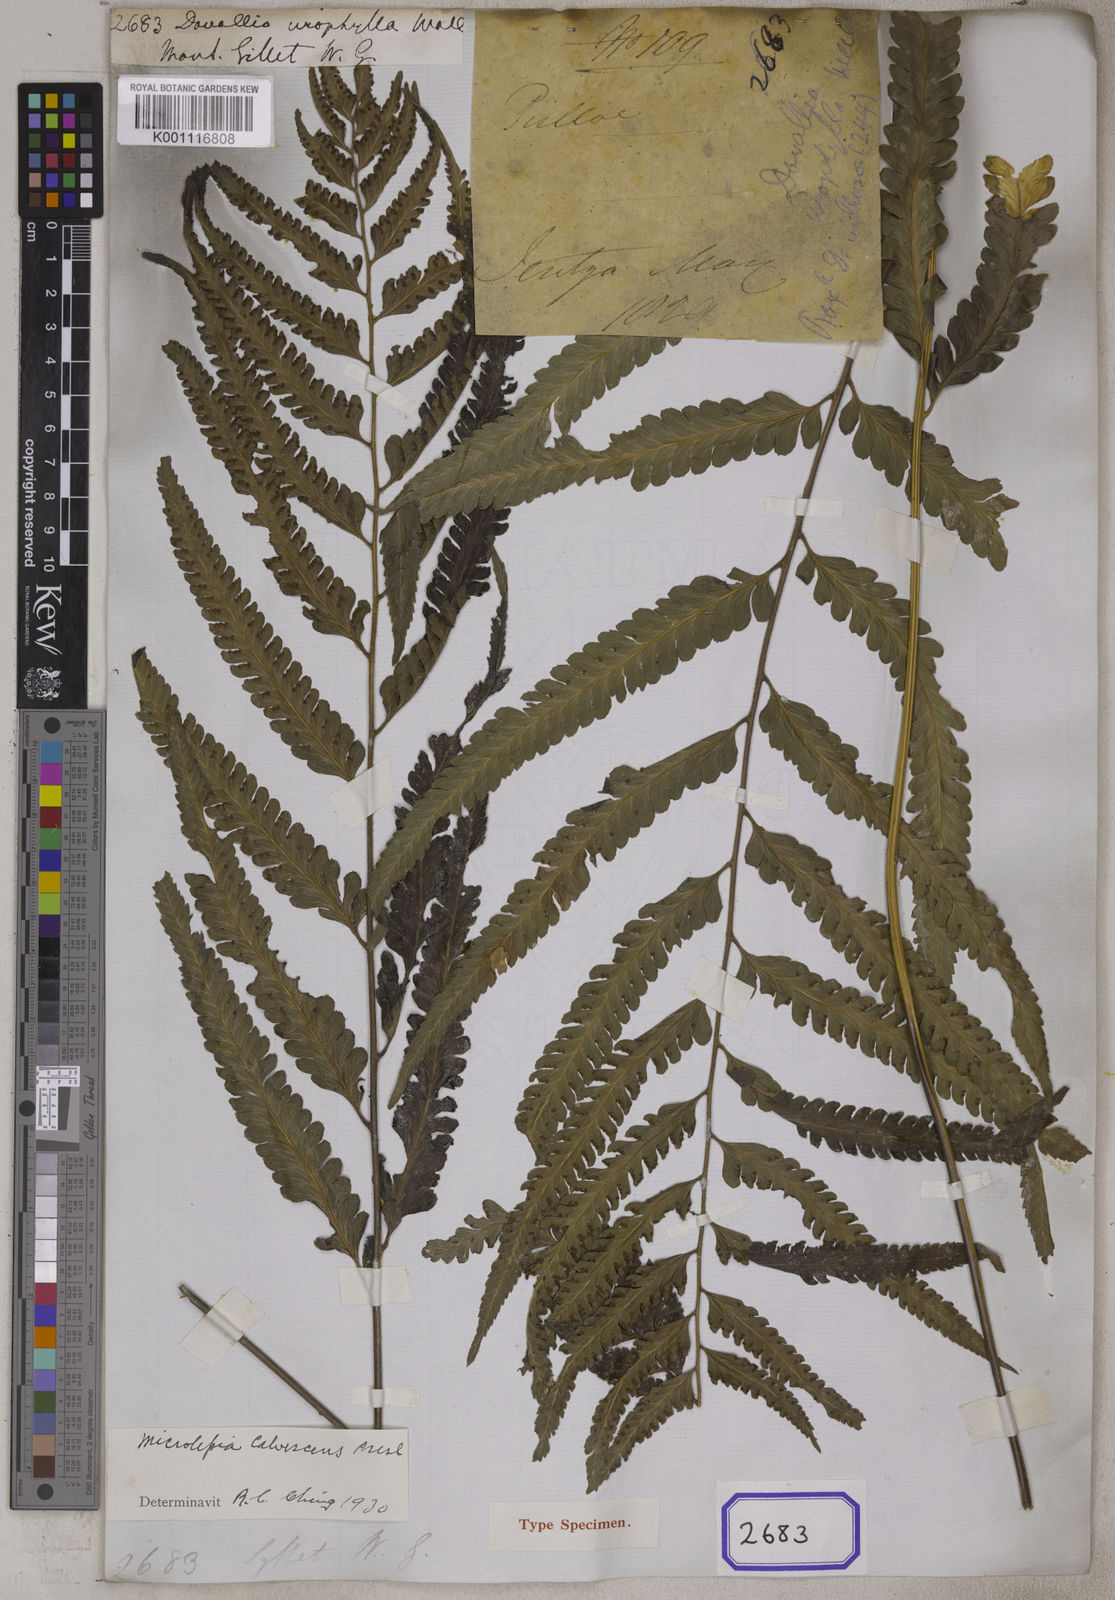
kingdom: Plantae
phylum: Tracheophyta
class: Polypodiopsida
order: Polypodiales
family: Dennstaedtiaceae
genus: Microlepia
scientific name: Microlepia calvescens
